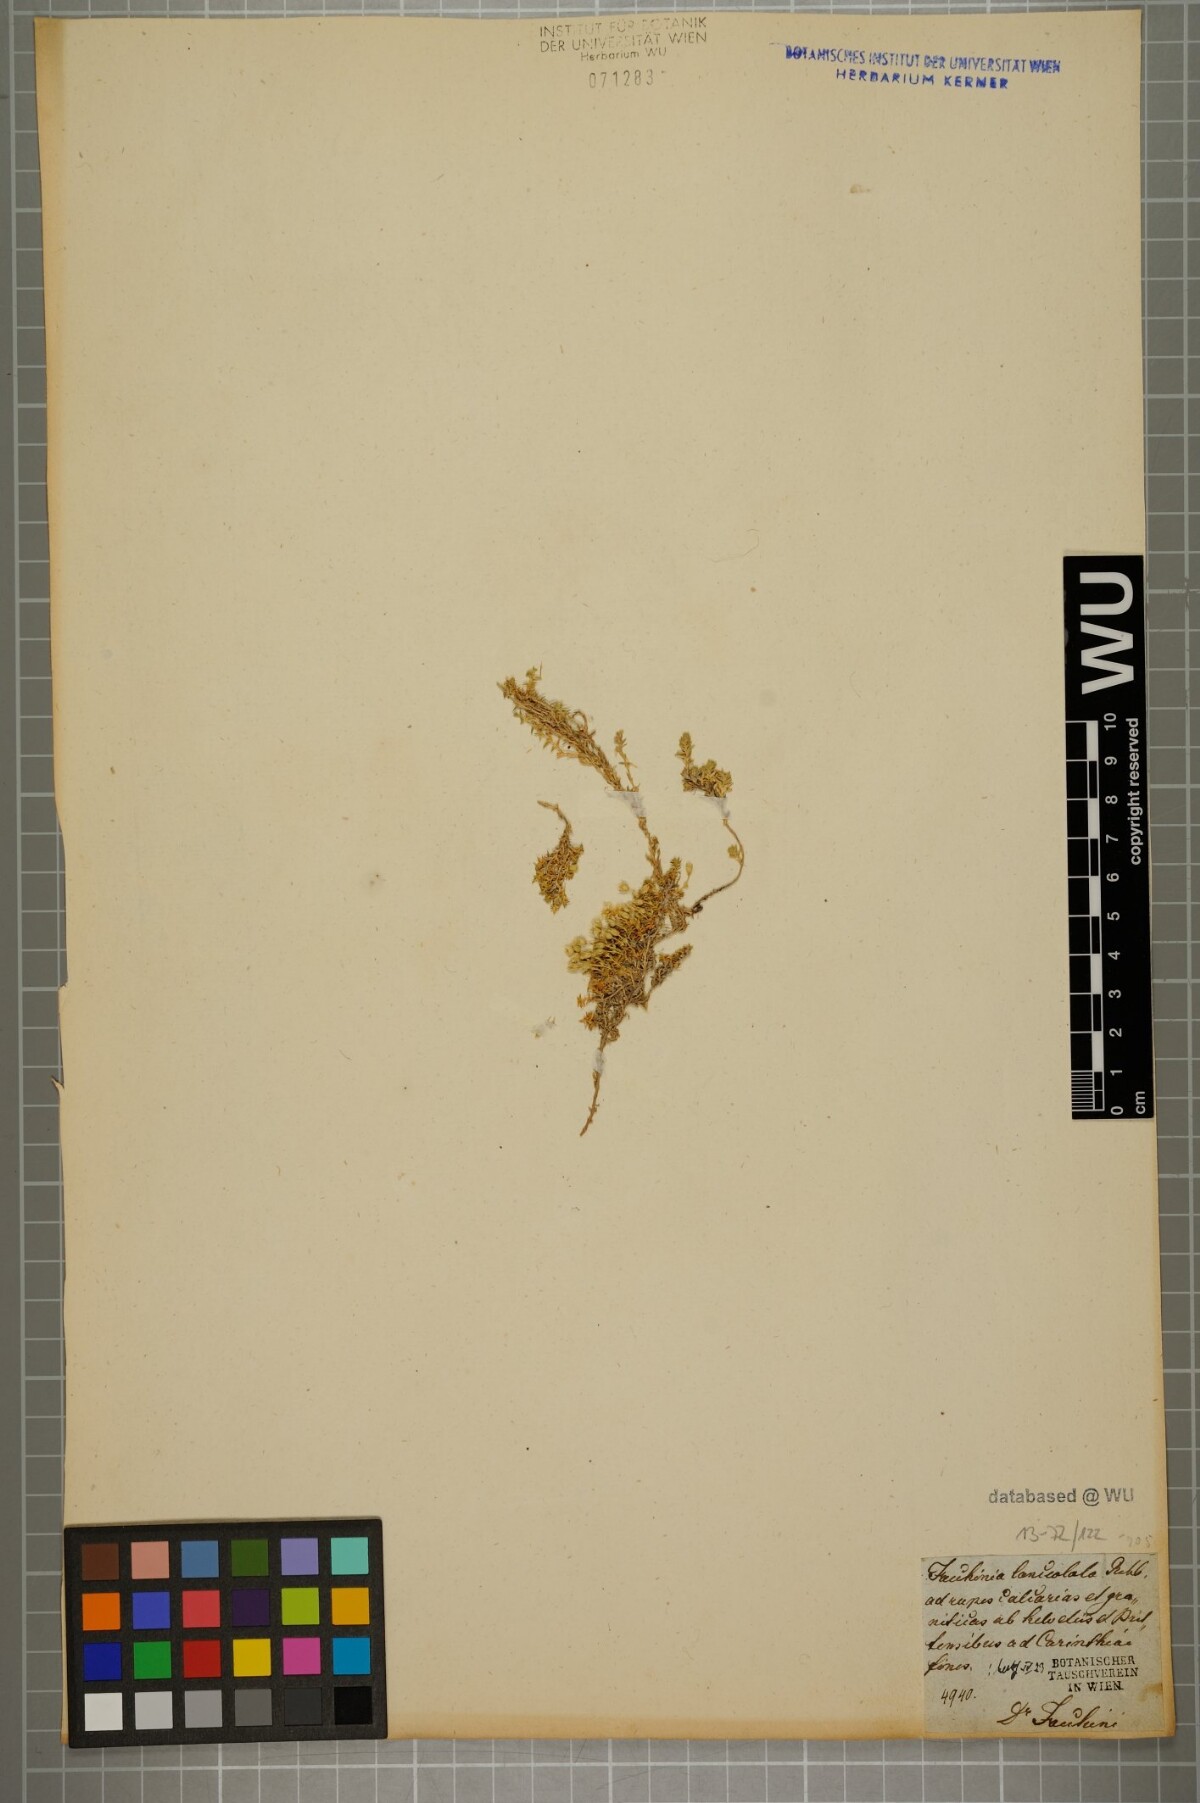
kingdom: Plantae
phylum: Tracheophyta
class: Magnoliopsida
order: Caryophyllales
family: Caryophyllaceae
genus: Facchinia
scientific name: Facchinia rupestris
